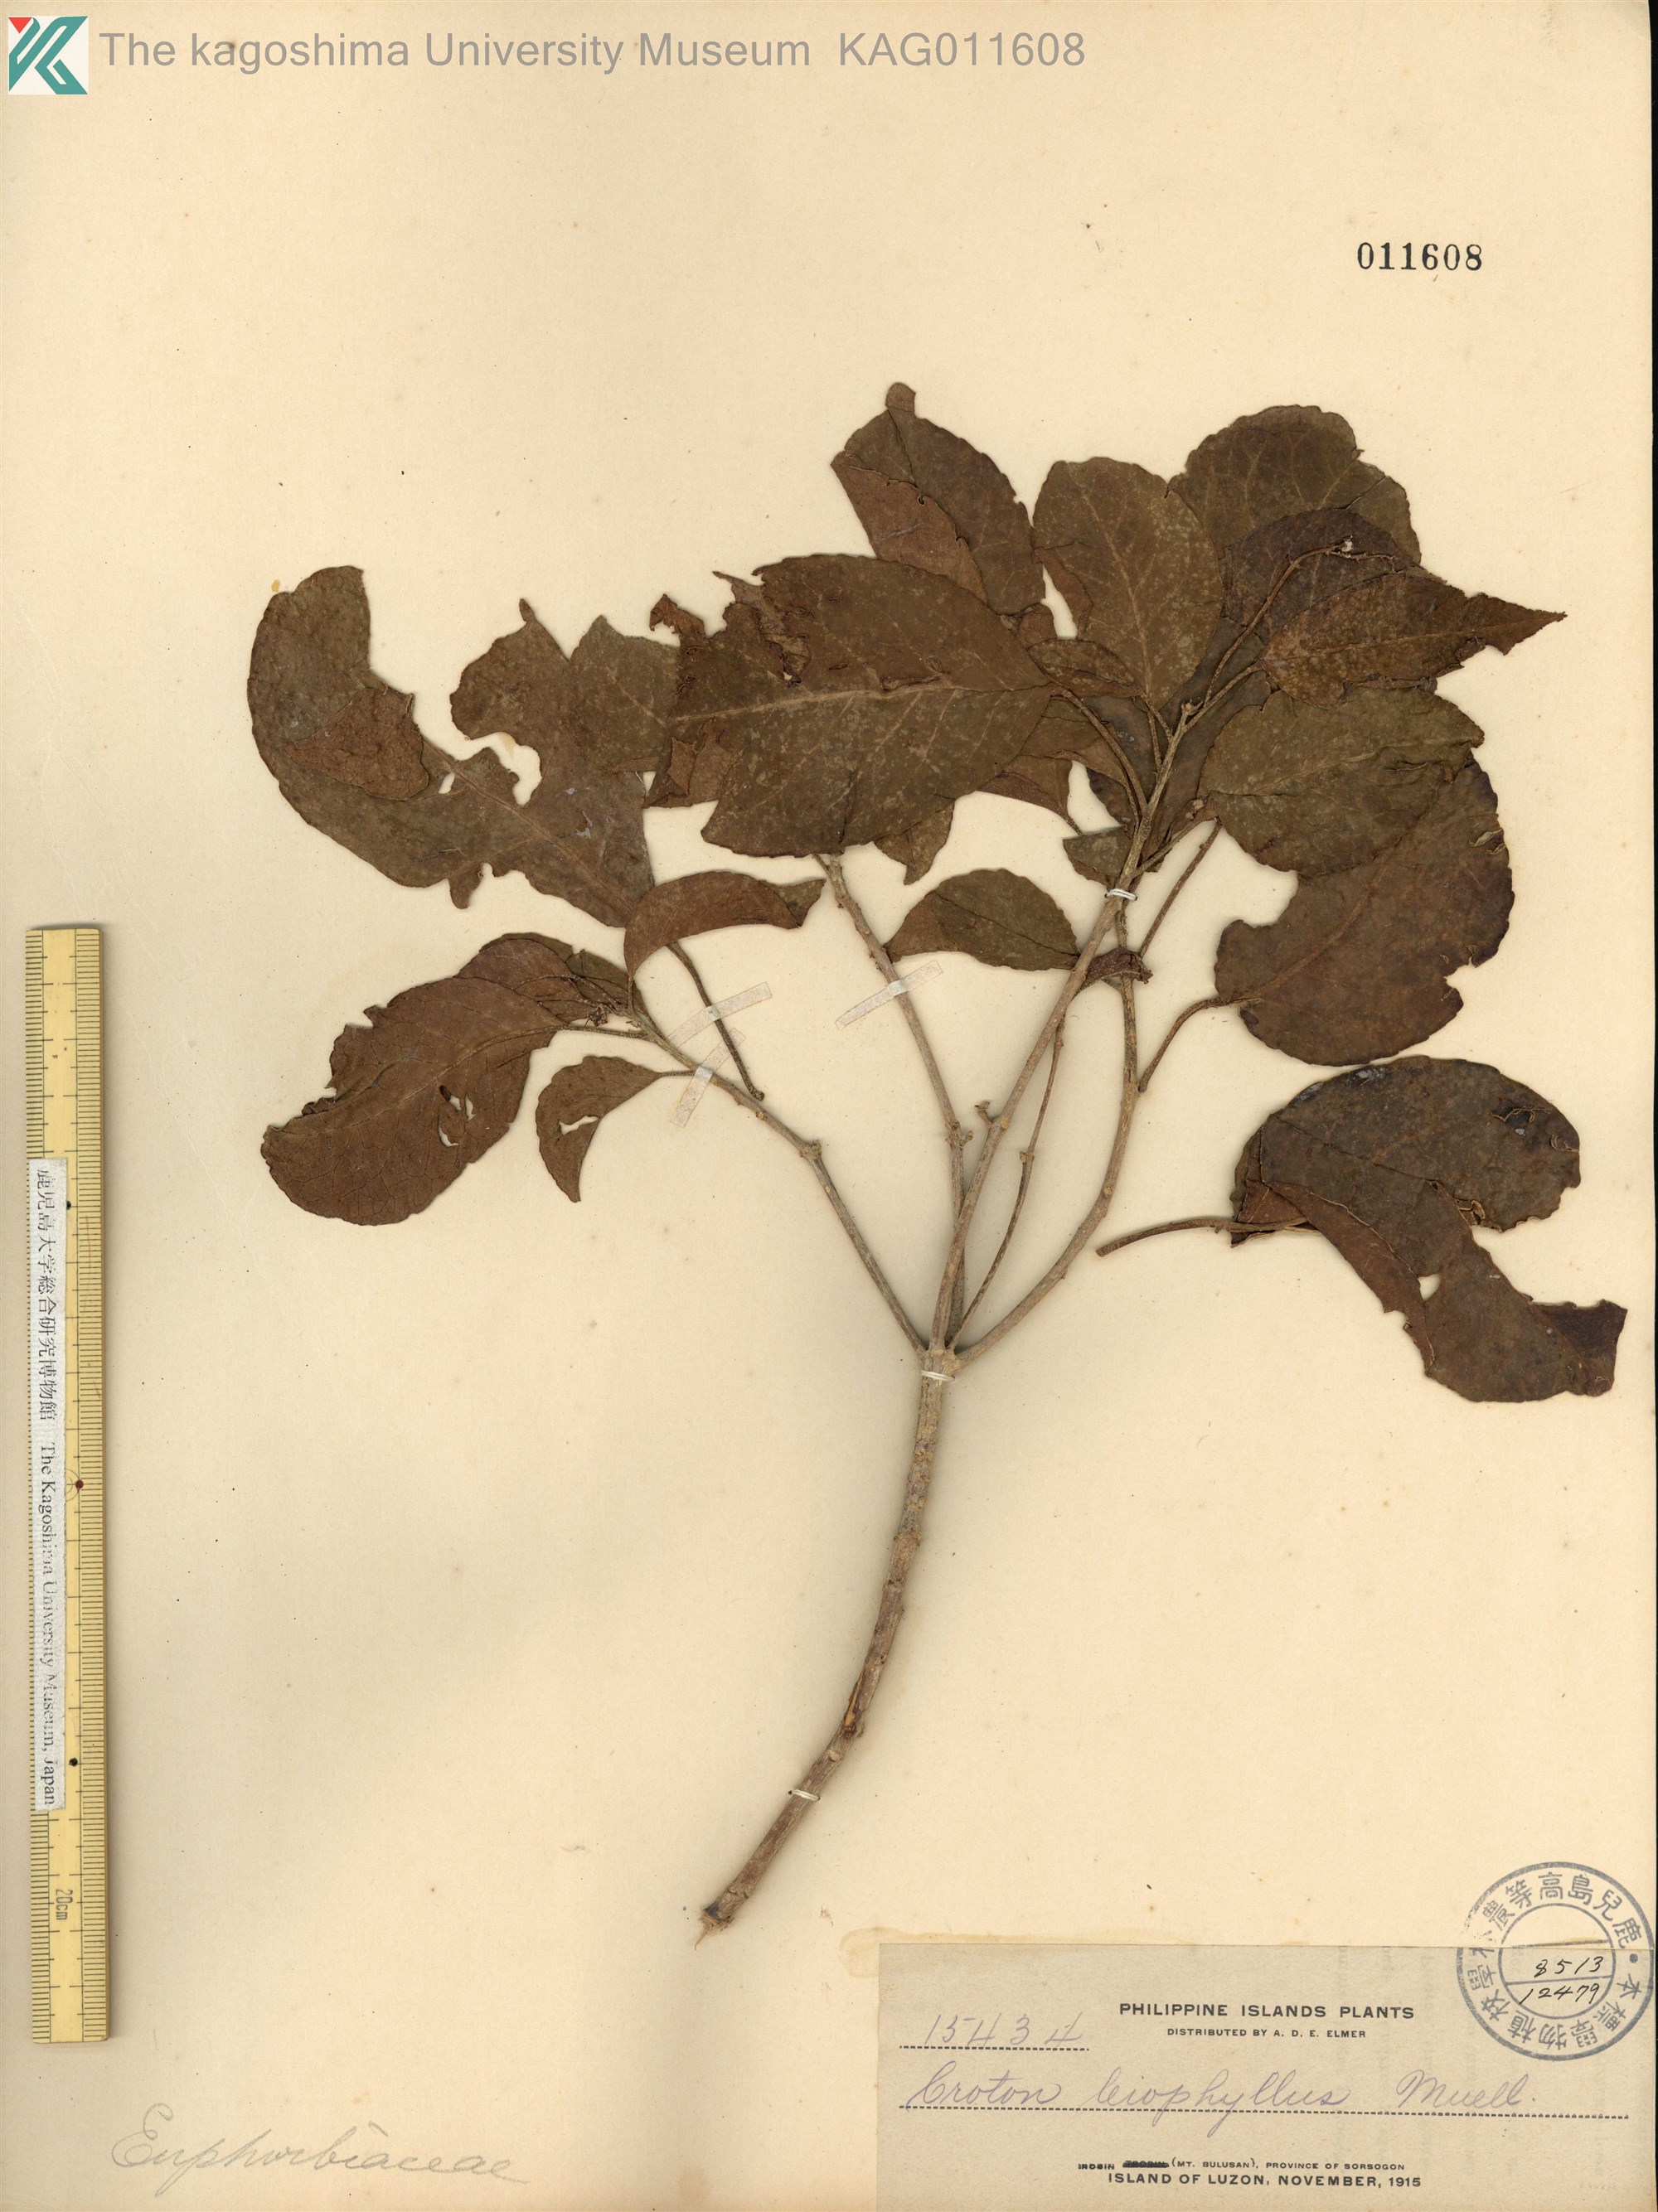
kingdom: Plantae
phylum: Tracheophyta
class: Magnoliopsida
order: Malpighiales
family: Euphorbiaceae
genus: Croton
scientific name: Croton leiophyllus
